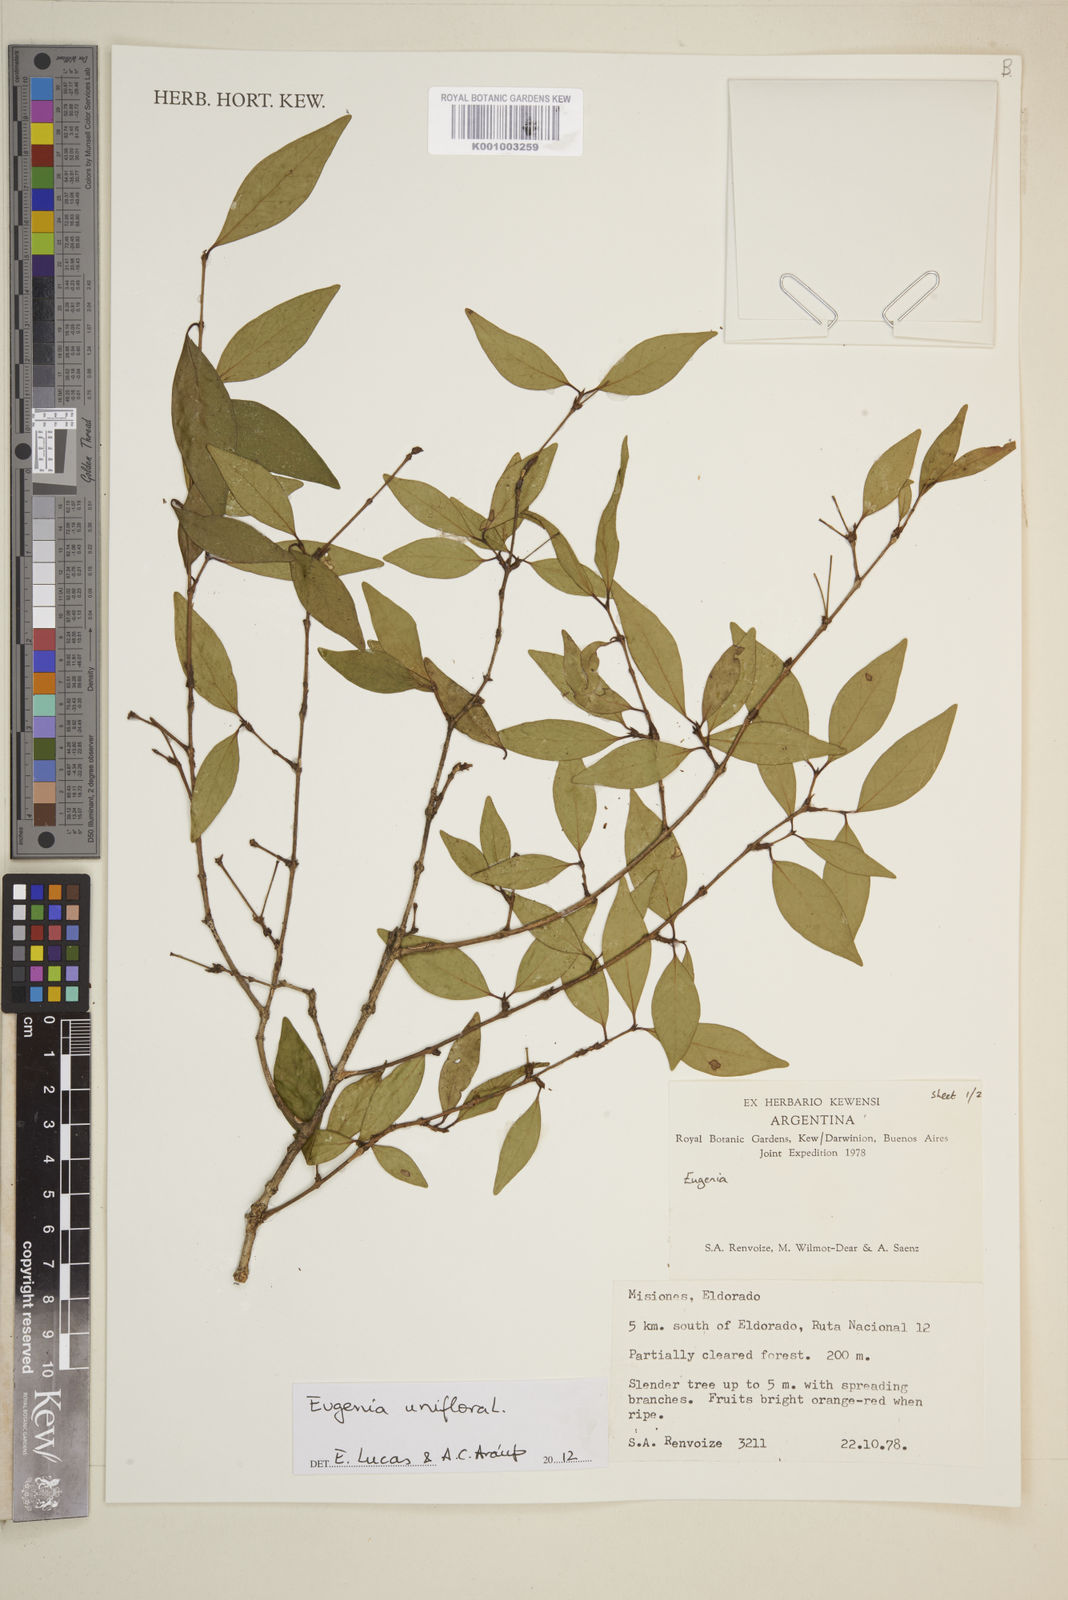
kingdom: Plantae
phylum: Tracheophyta
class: Magnoliopsida
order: Myrtales
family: Myrtaceae
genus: Eugenia
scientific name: Eugenia uniflora
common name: Surinam cherry
